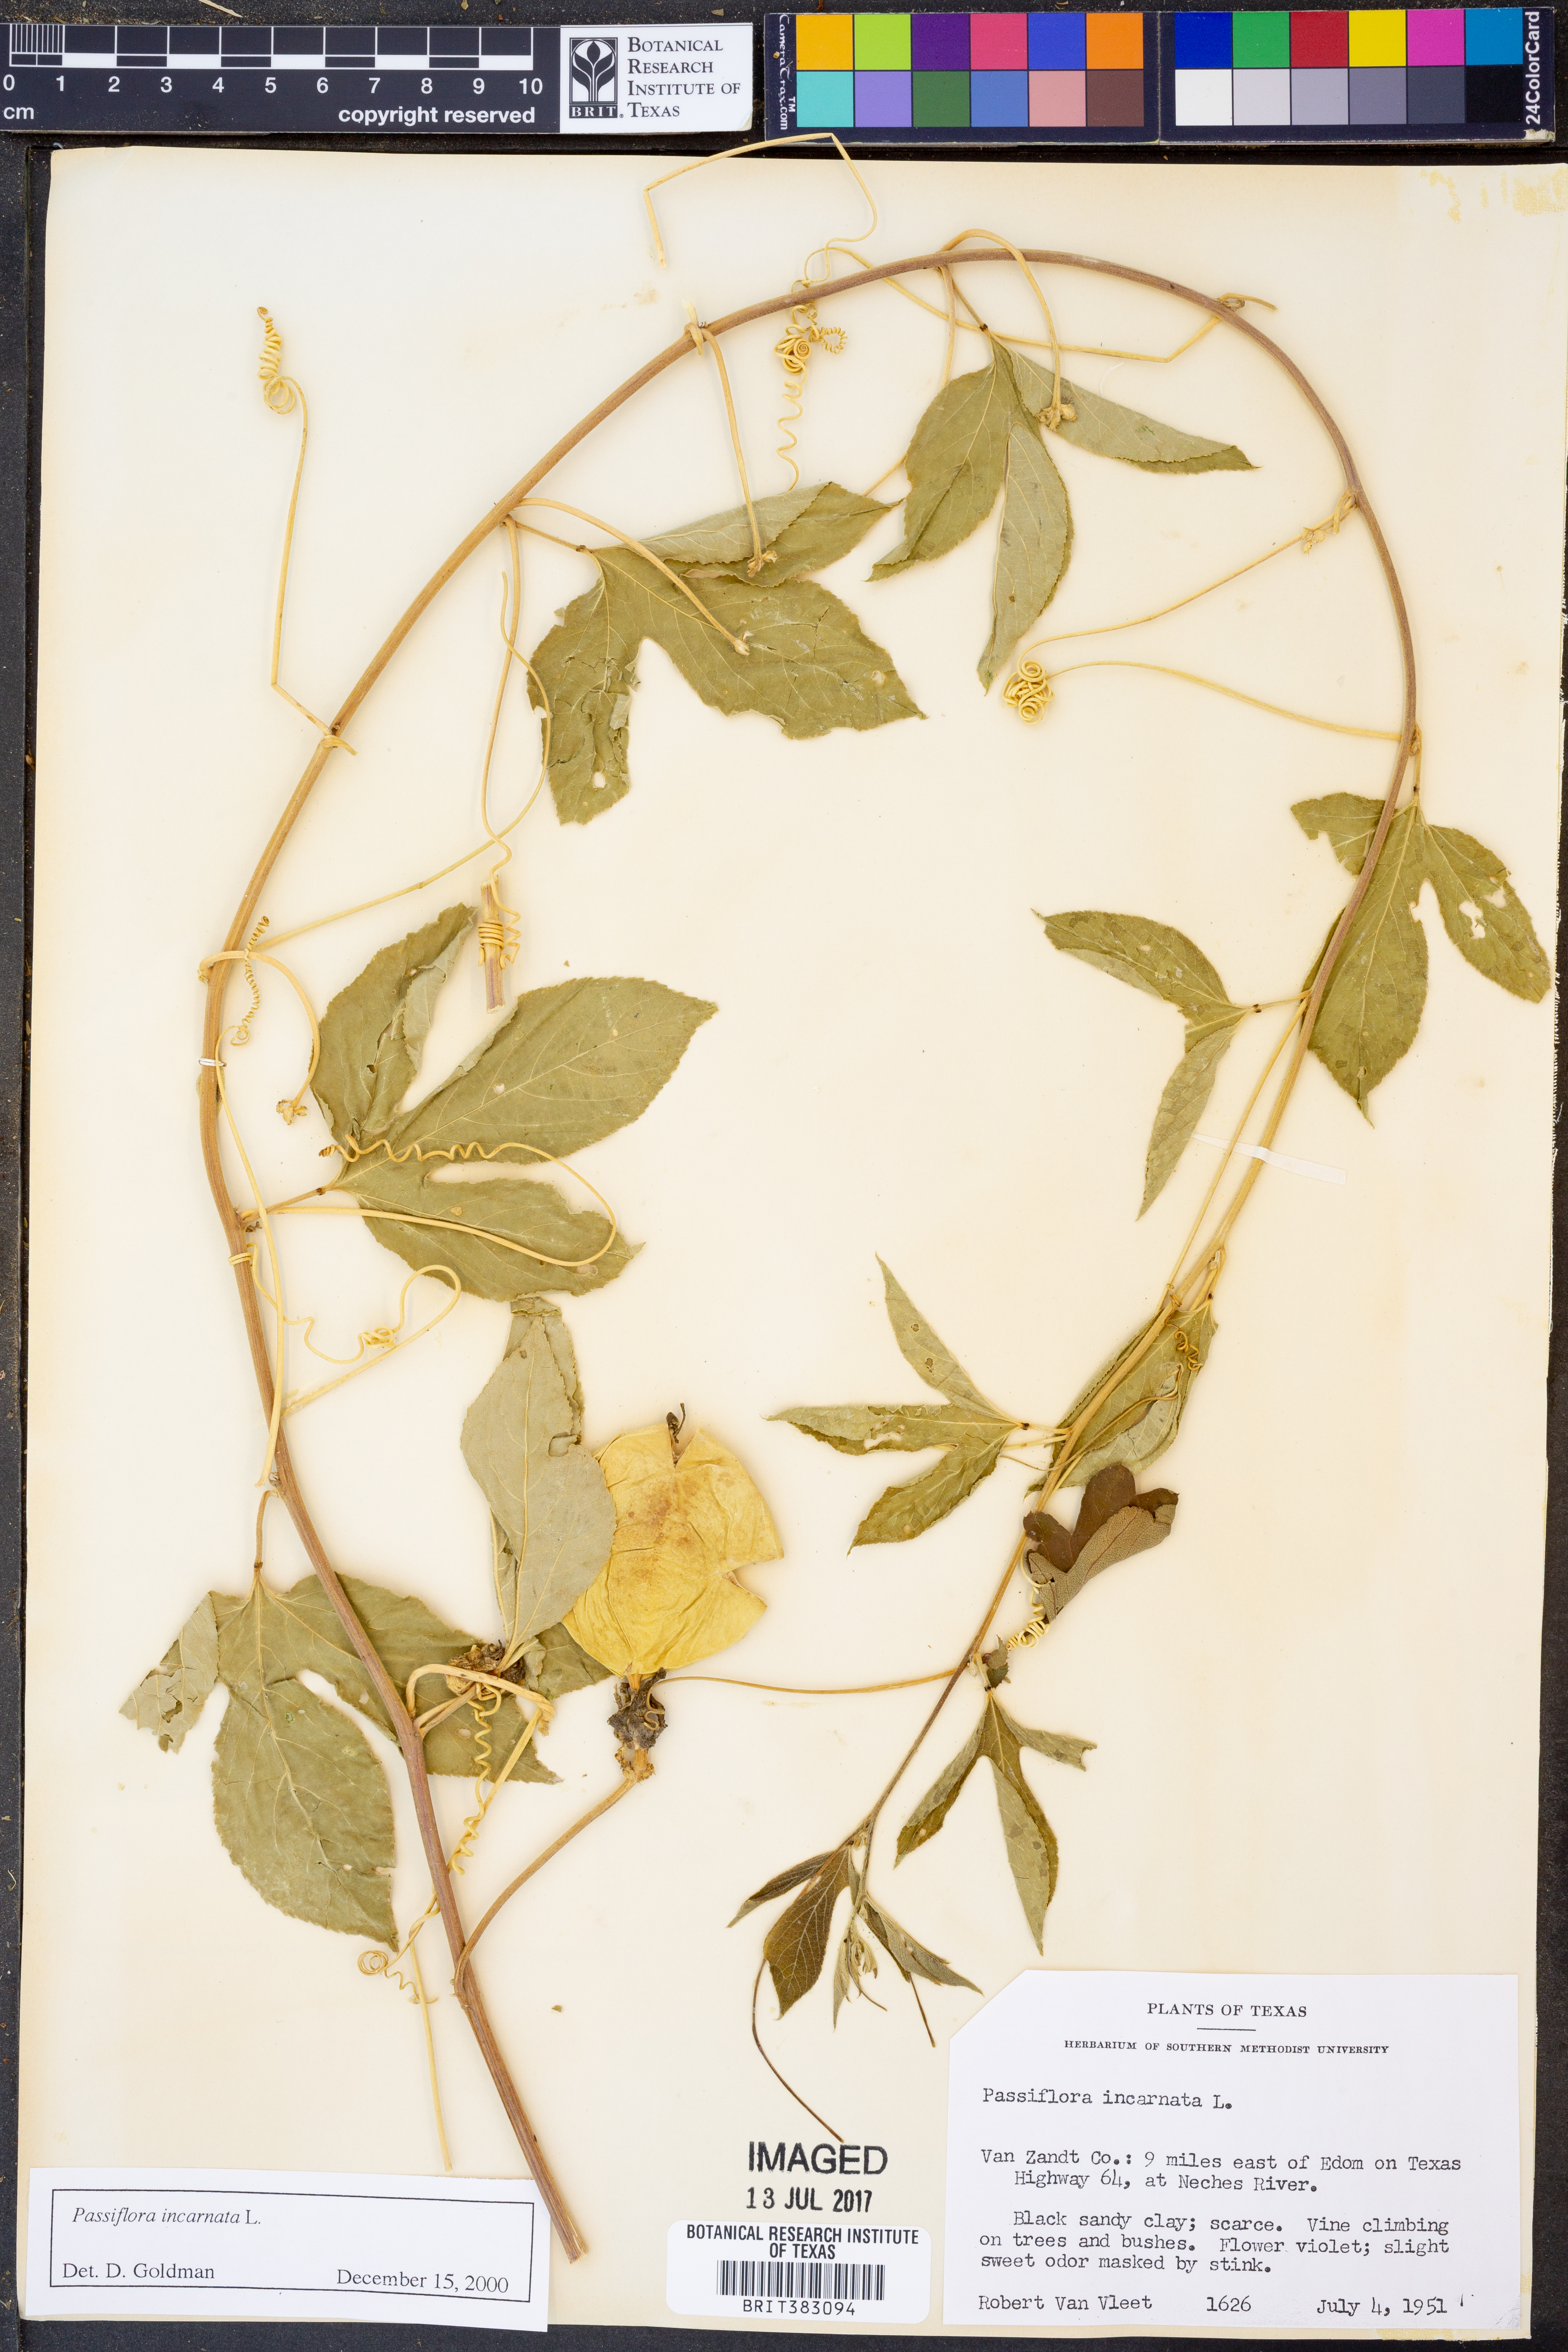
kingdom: Plantae
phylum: Tracheophyta
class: Magnoliopsida
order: Malpighiales
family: Passifloraceae
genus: Passiflora
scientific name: Passiflora incarnata
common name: Apricot-vine
